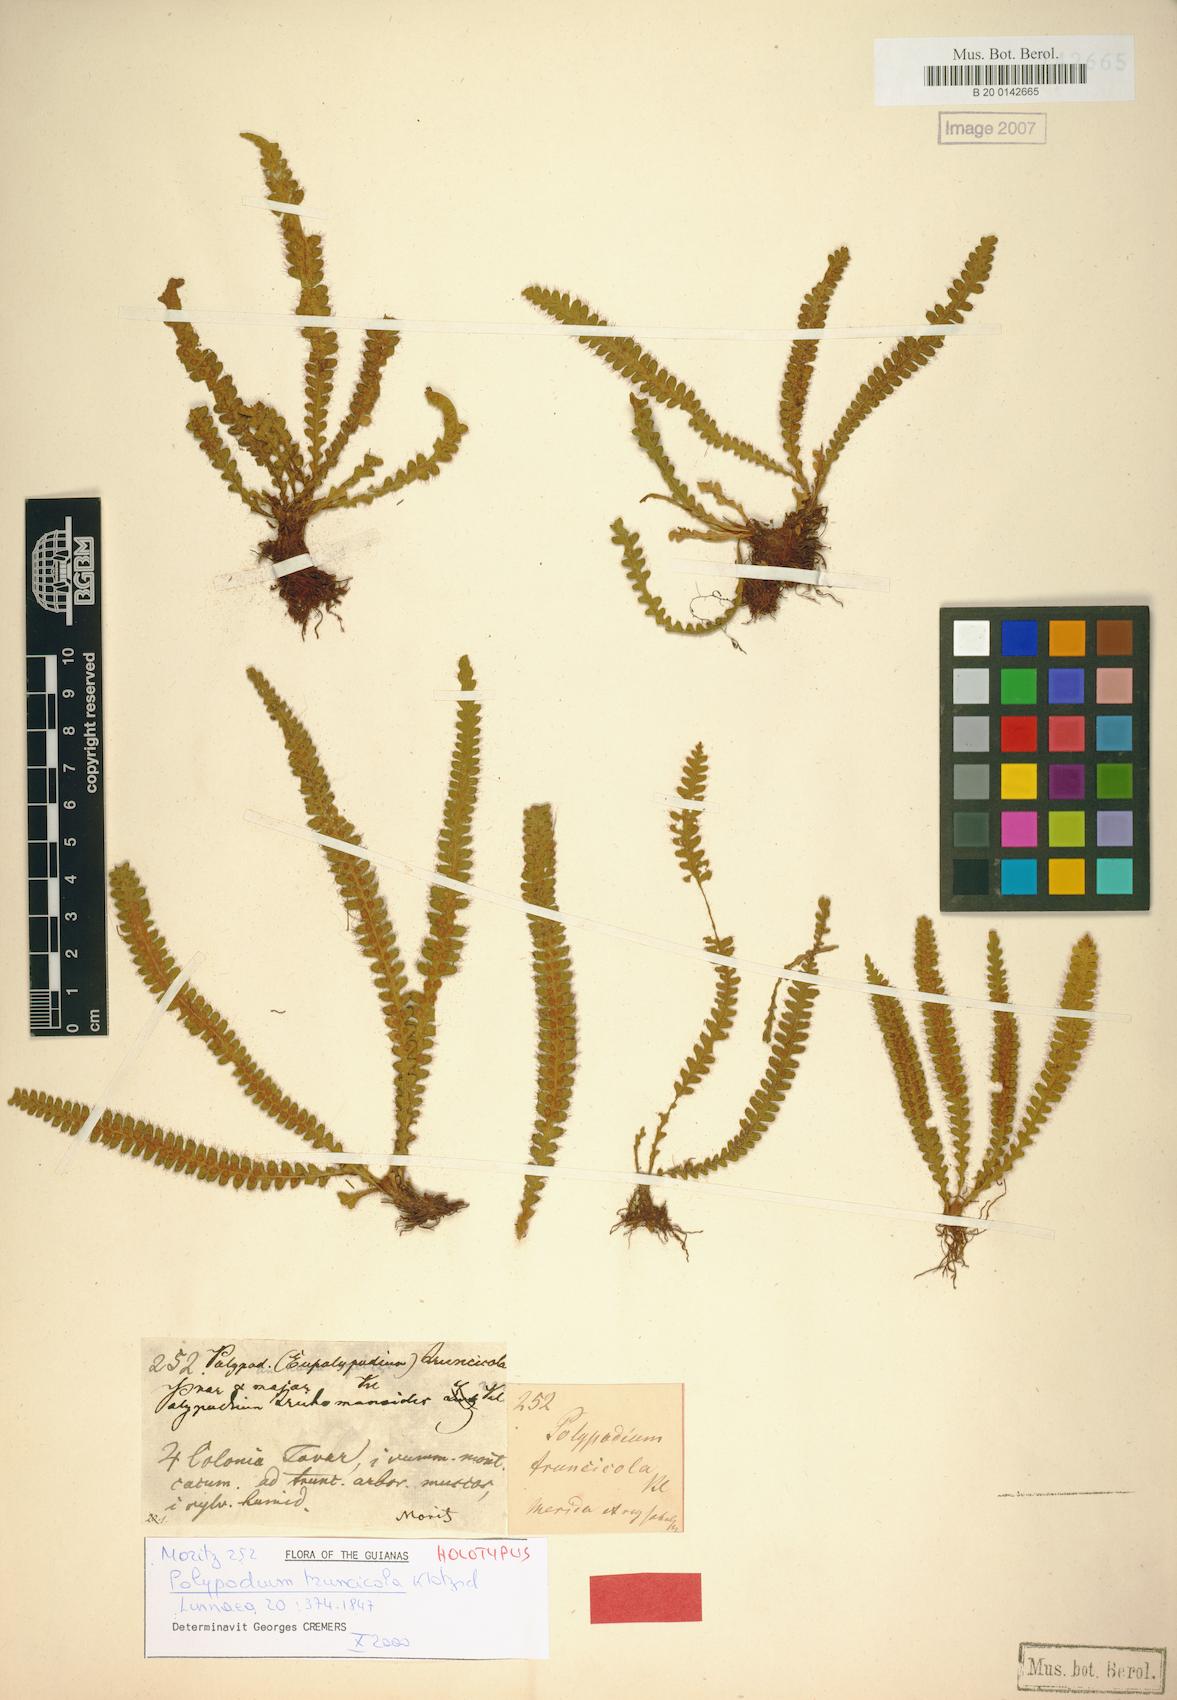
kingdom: Plantae
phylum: Tracheophyta
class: Polypodiopsida
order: Polypodiales
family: Polypodiaceae
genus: Moranopteris
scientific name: Moranopteris truncicola
